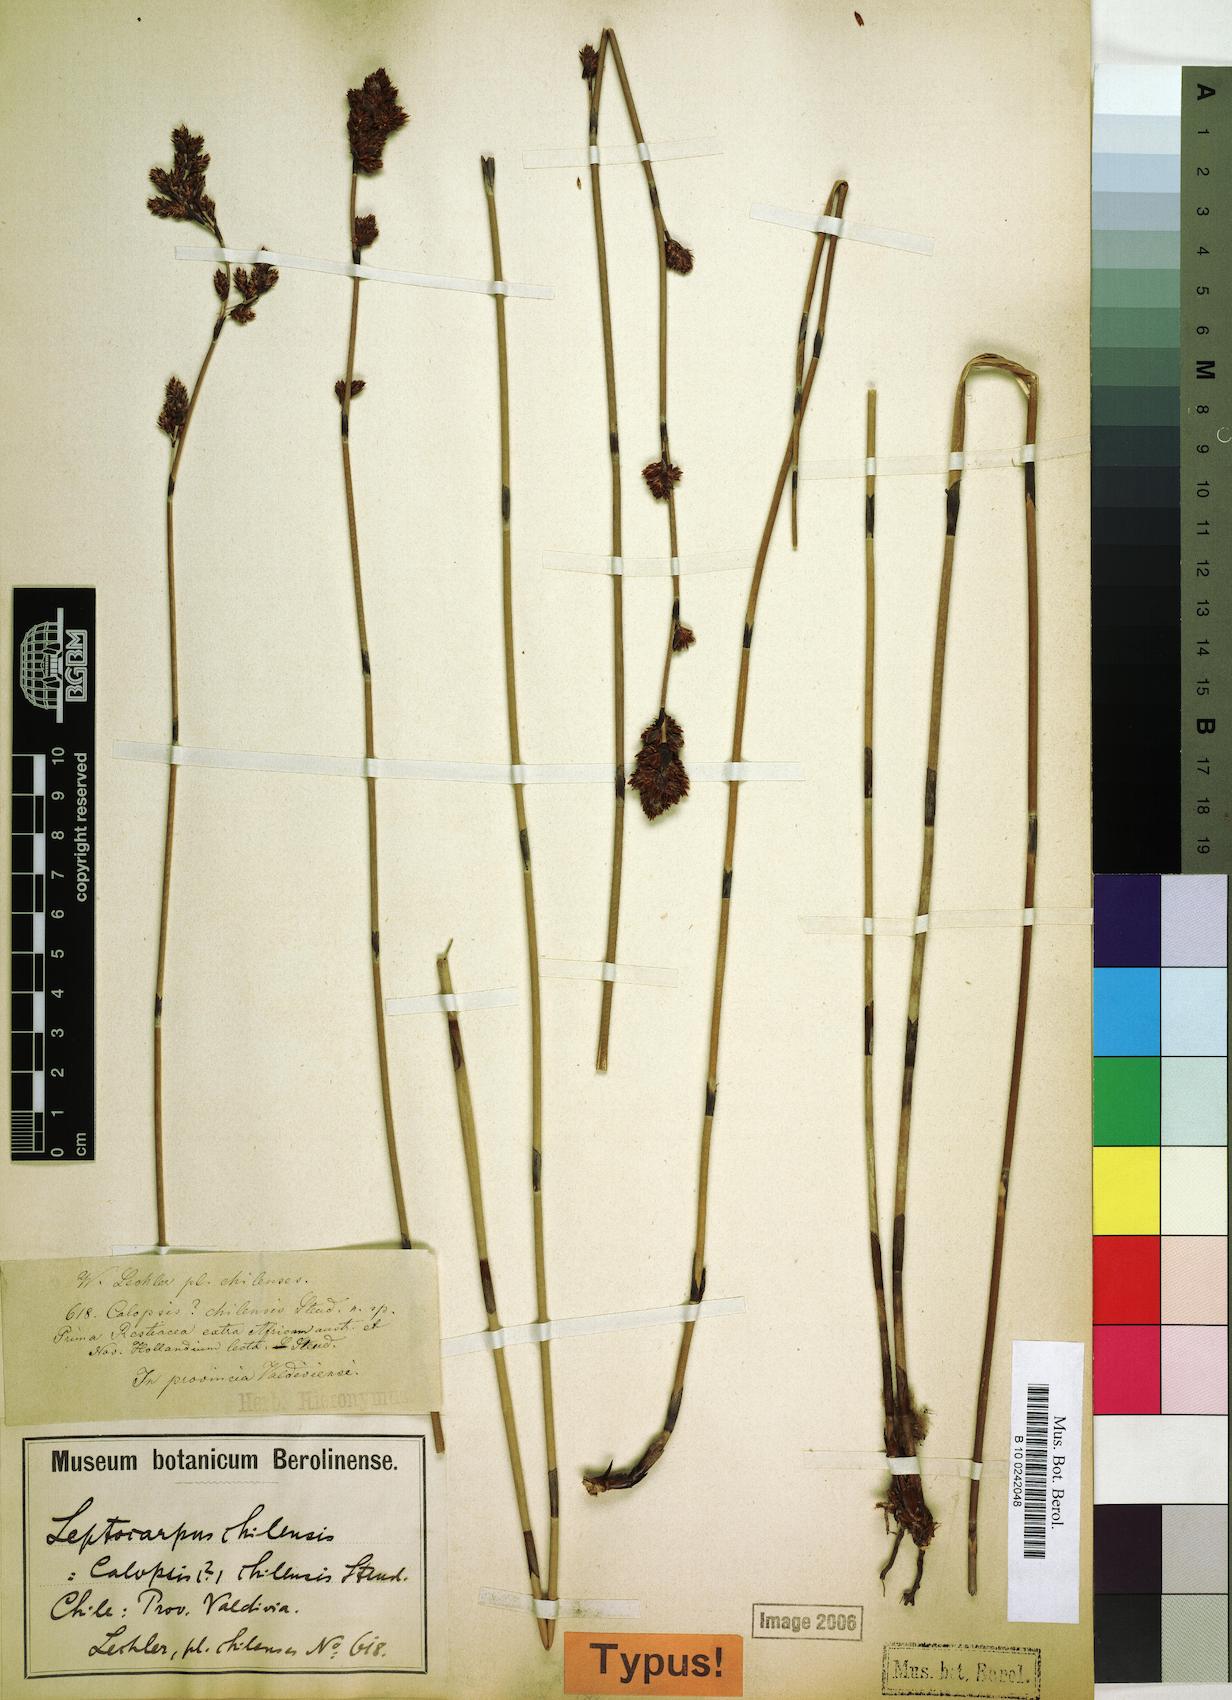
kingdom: Plantae
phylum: Tracheophyta
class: Liliopsida
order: Poales
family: Restionaceae
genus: Apodasmia
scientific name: Apodasmia chilensis
